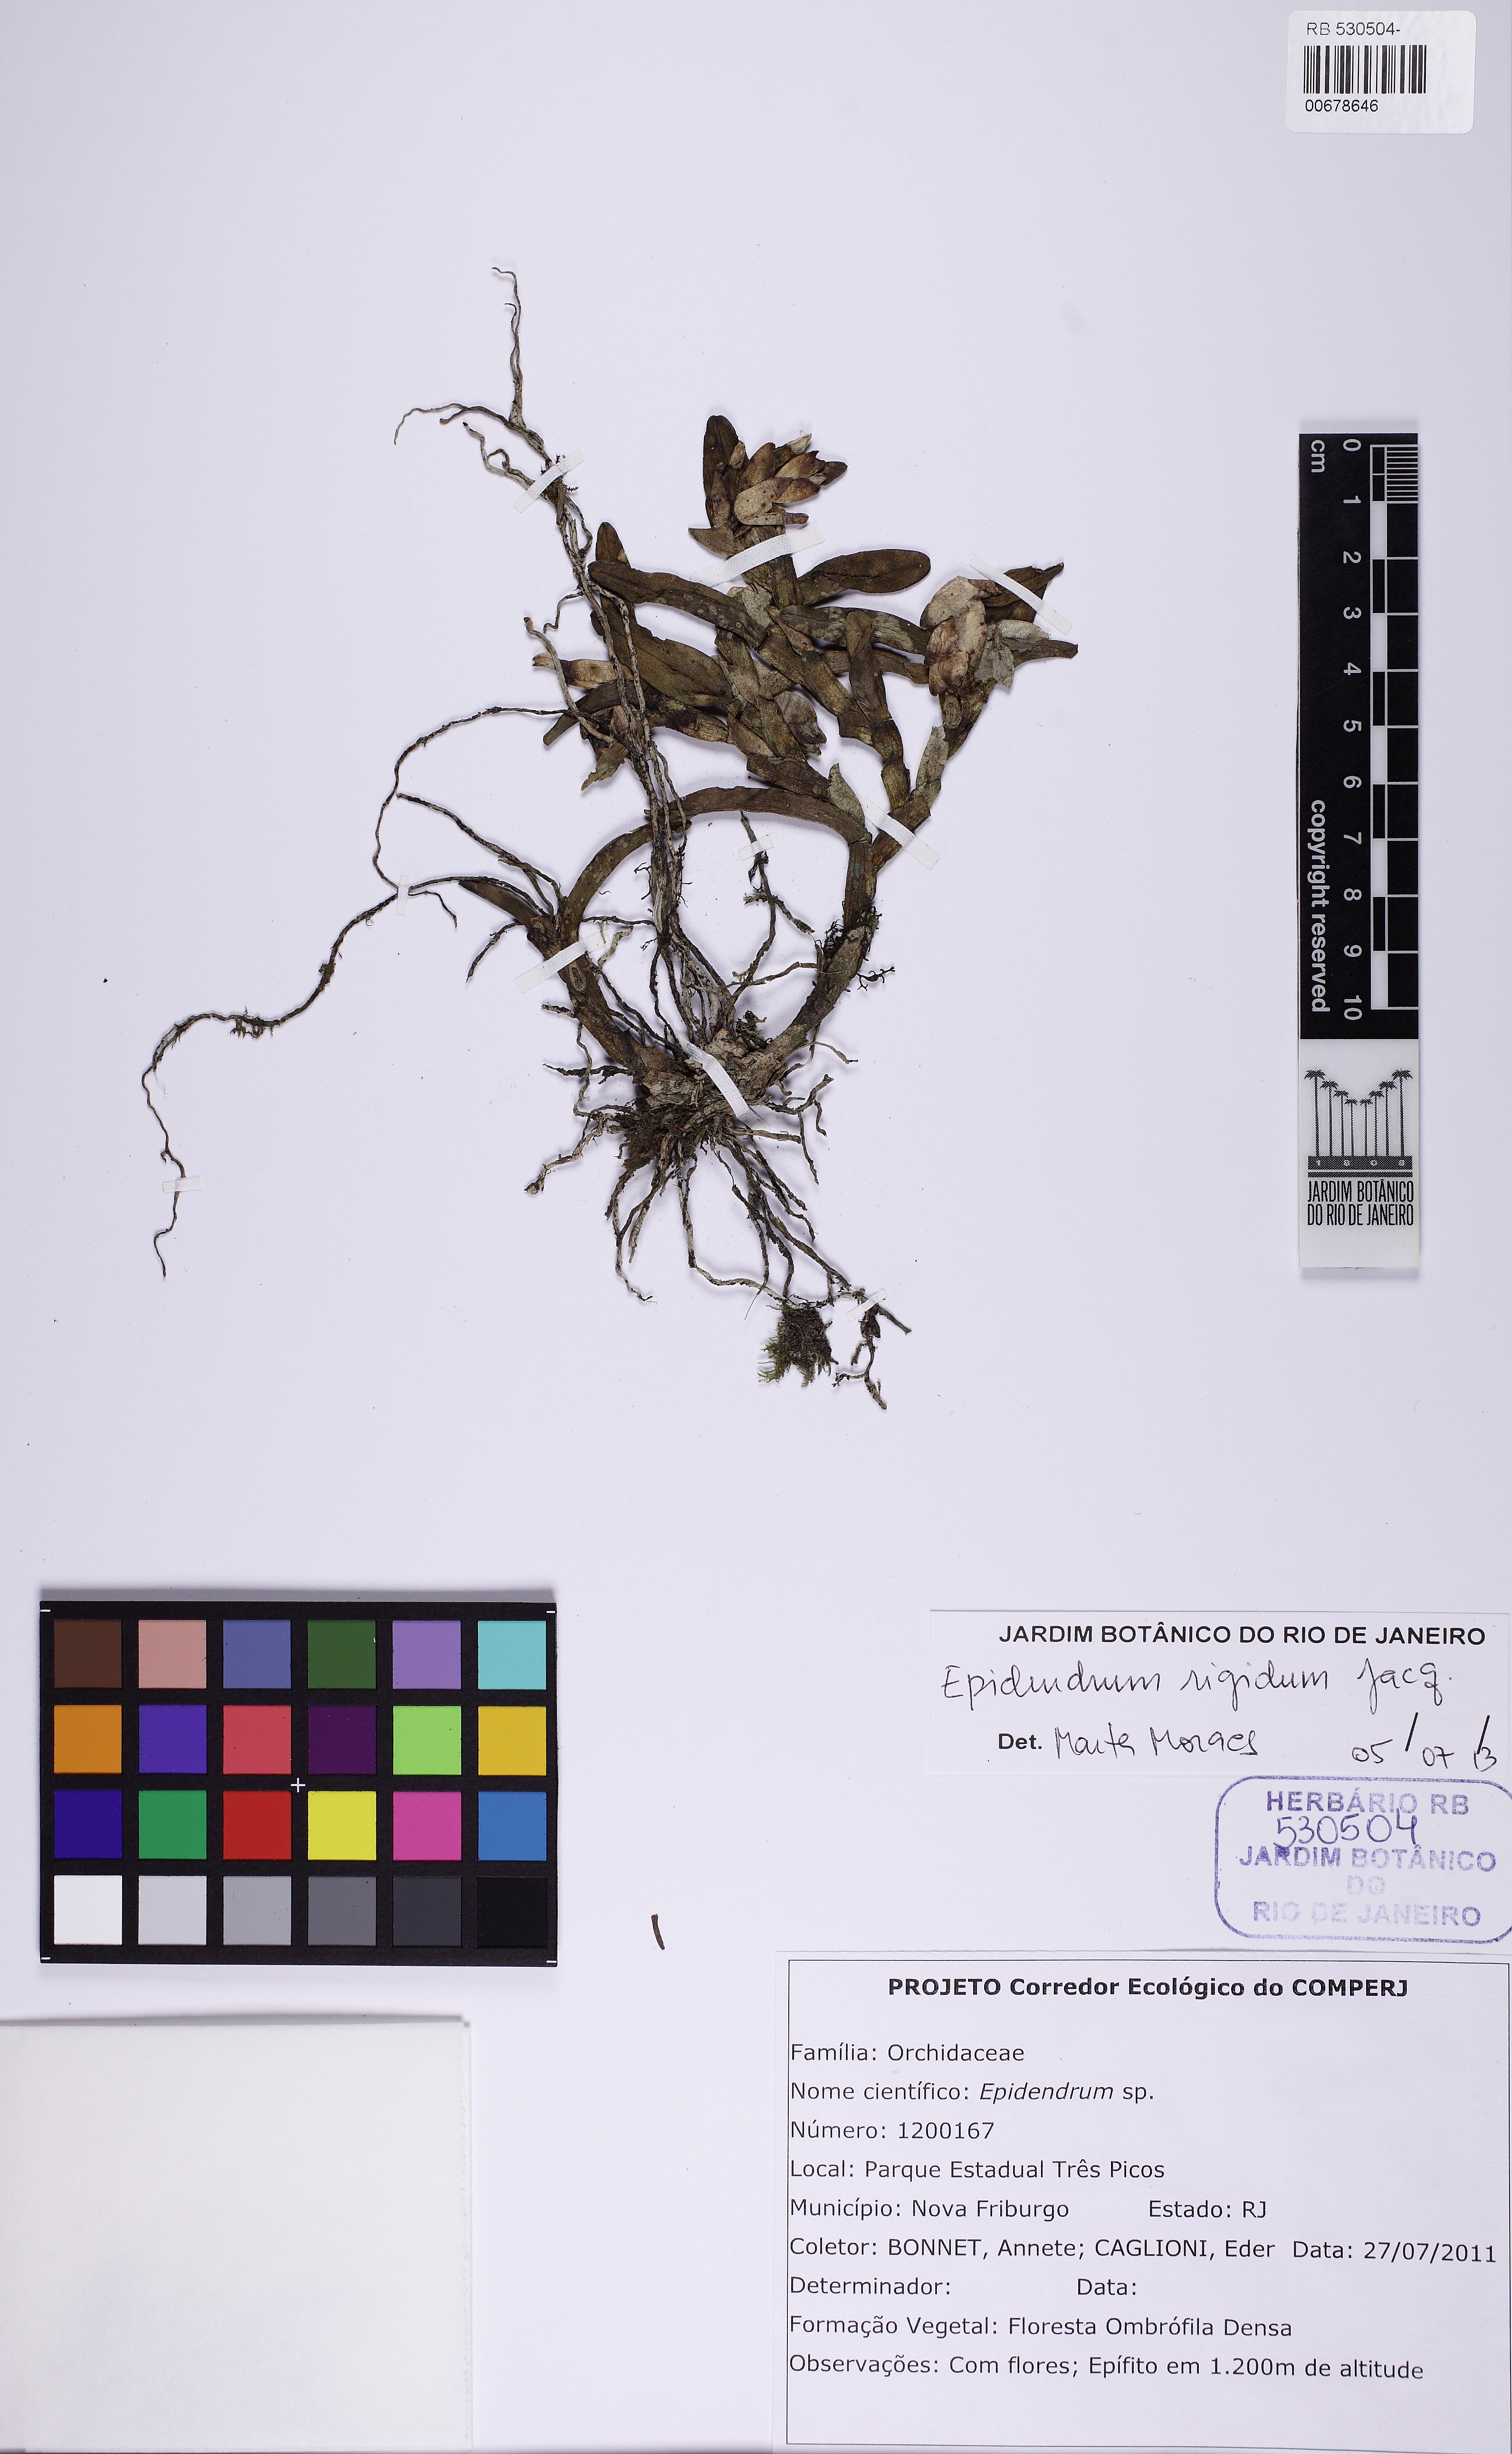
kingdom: Plantae
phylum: Tracheophyta
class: Liliopsida
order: Asparagales
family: Orchidaceae
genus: Epidendrum
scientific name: Epidendrum strobiliferum
